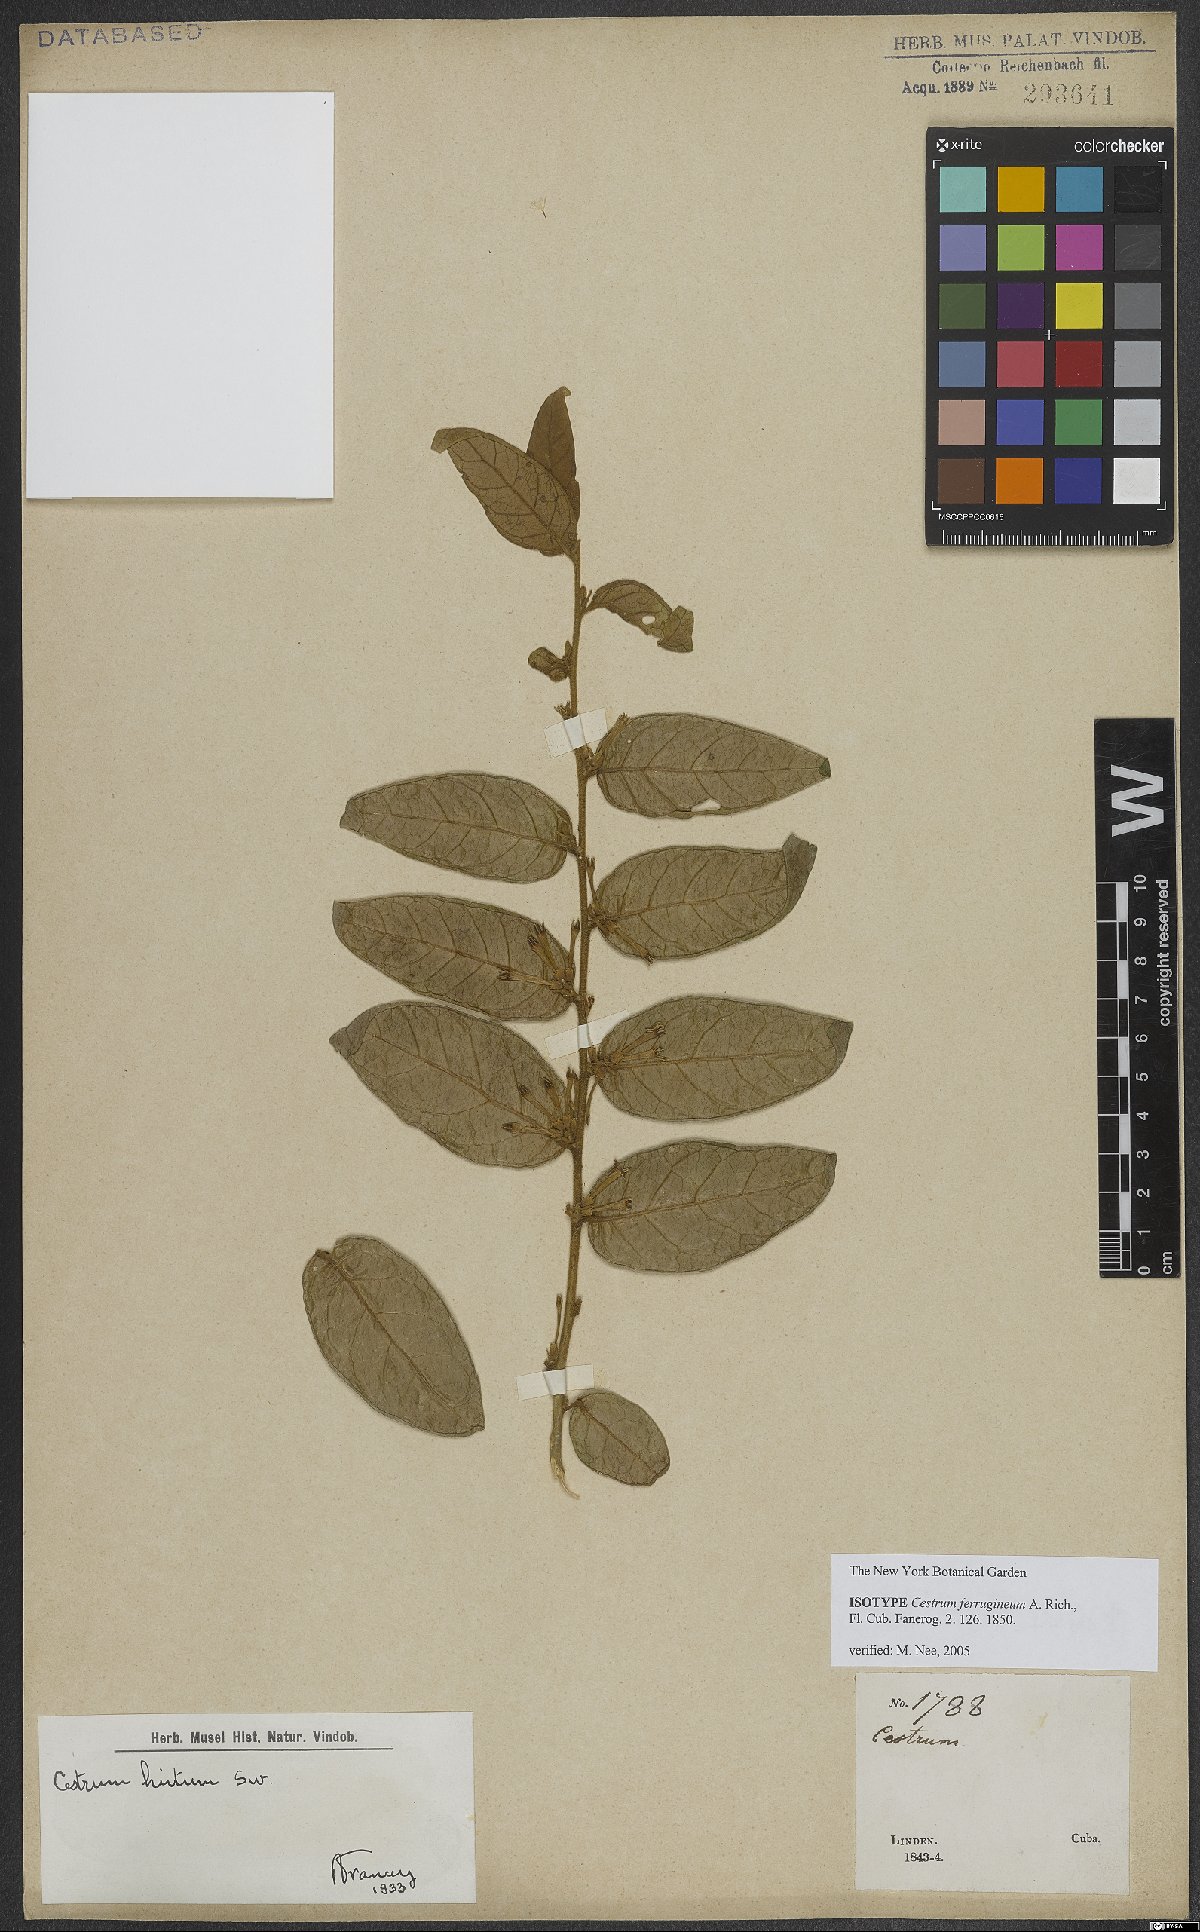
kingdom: Plantae
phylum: Tracheophyta
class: Magnoliopsida
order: Solanales
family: Solanaceae
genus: Cestrum
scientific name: Cestrum ferrugineum
